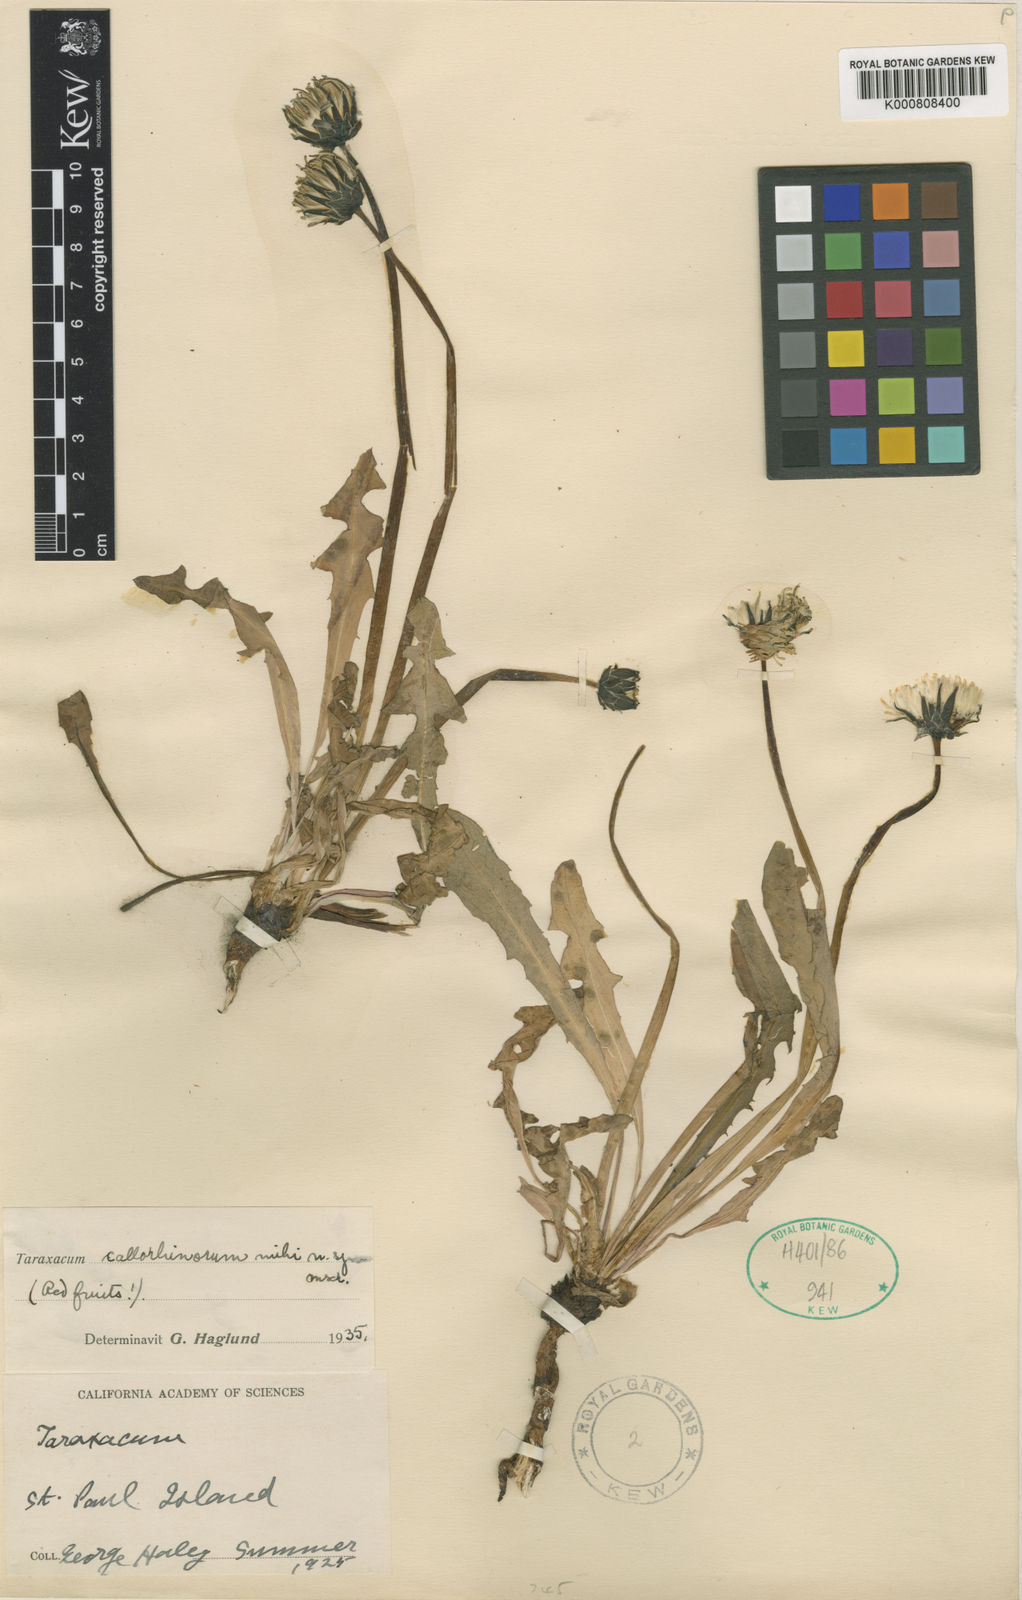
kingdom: Plantae
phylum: Tracheophyta
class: Magnoliopsida
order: Asterales
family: Asteraceae
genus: Taraxacum
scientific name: Taraxacum ceratophorum
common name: Horn-bearing dandelion
